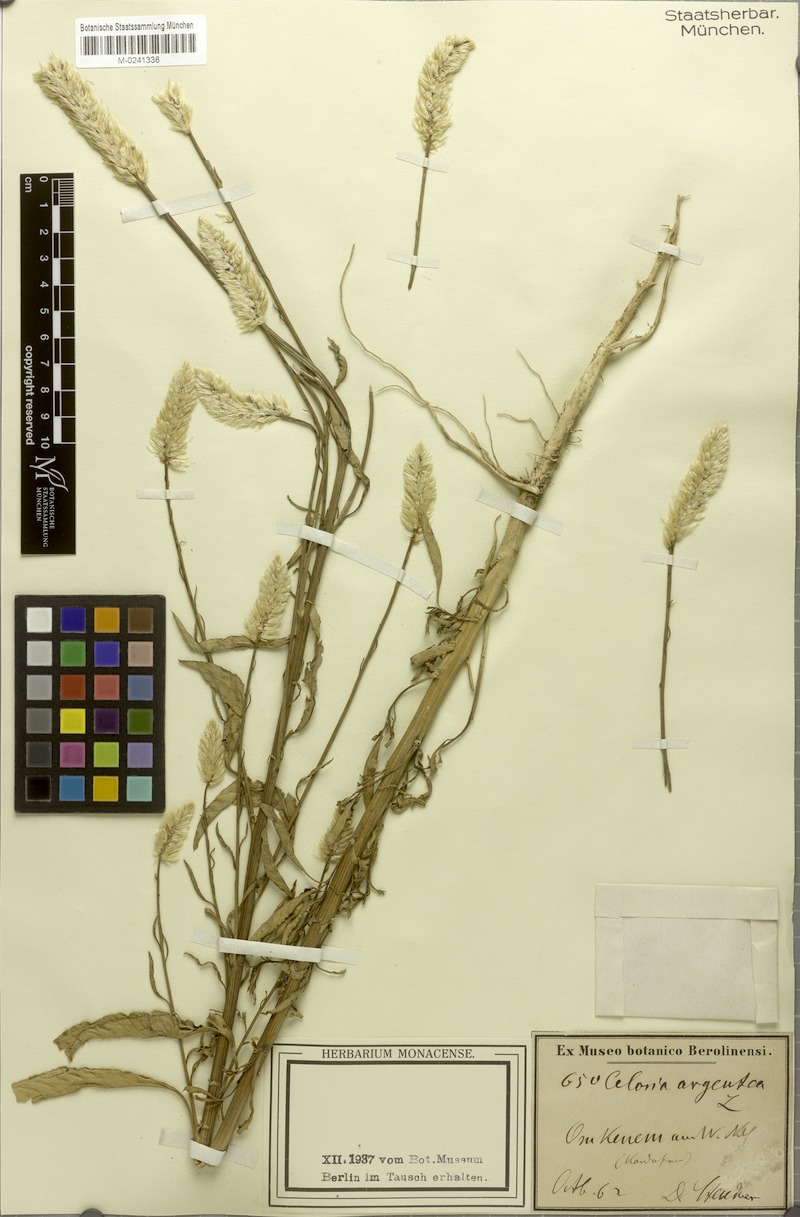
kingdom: Plantae
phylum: Tracheophyta
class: Magnoliopsida
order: Caryophyllales
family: Amaranthaceae
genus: Celosia
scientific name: Celosia argentea
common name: Feather cockscomb
